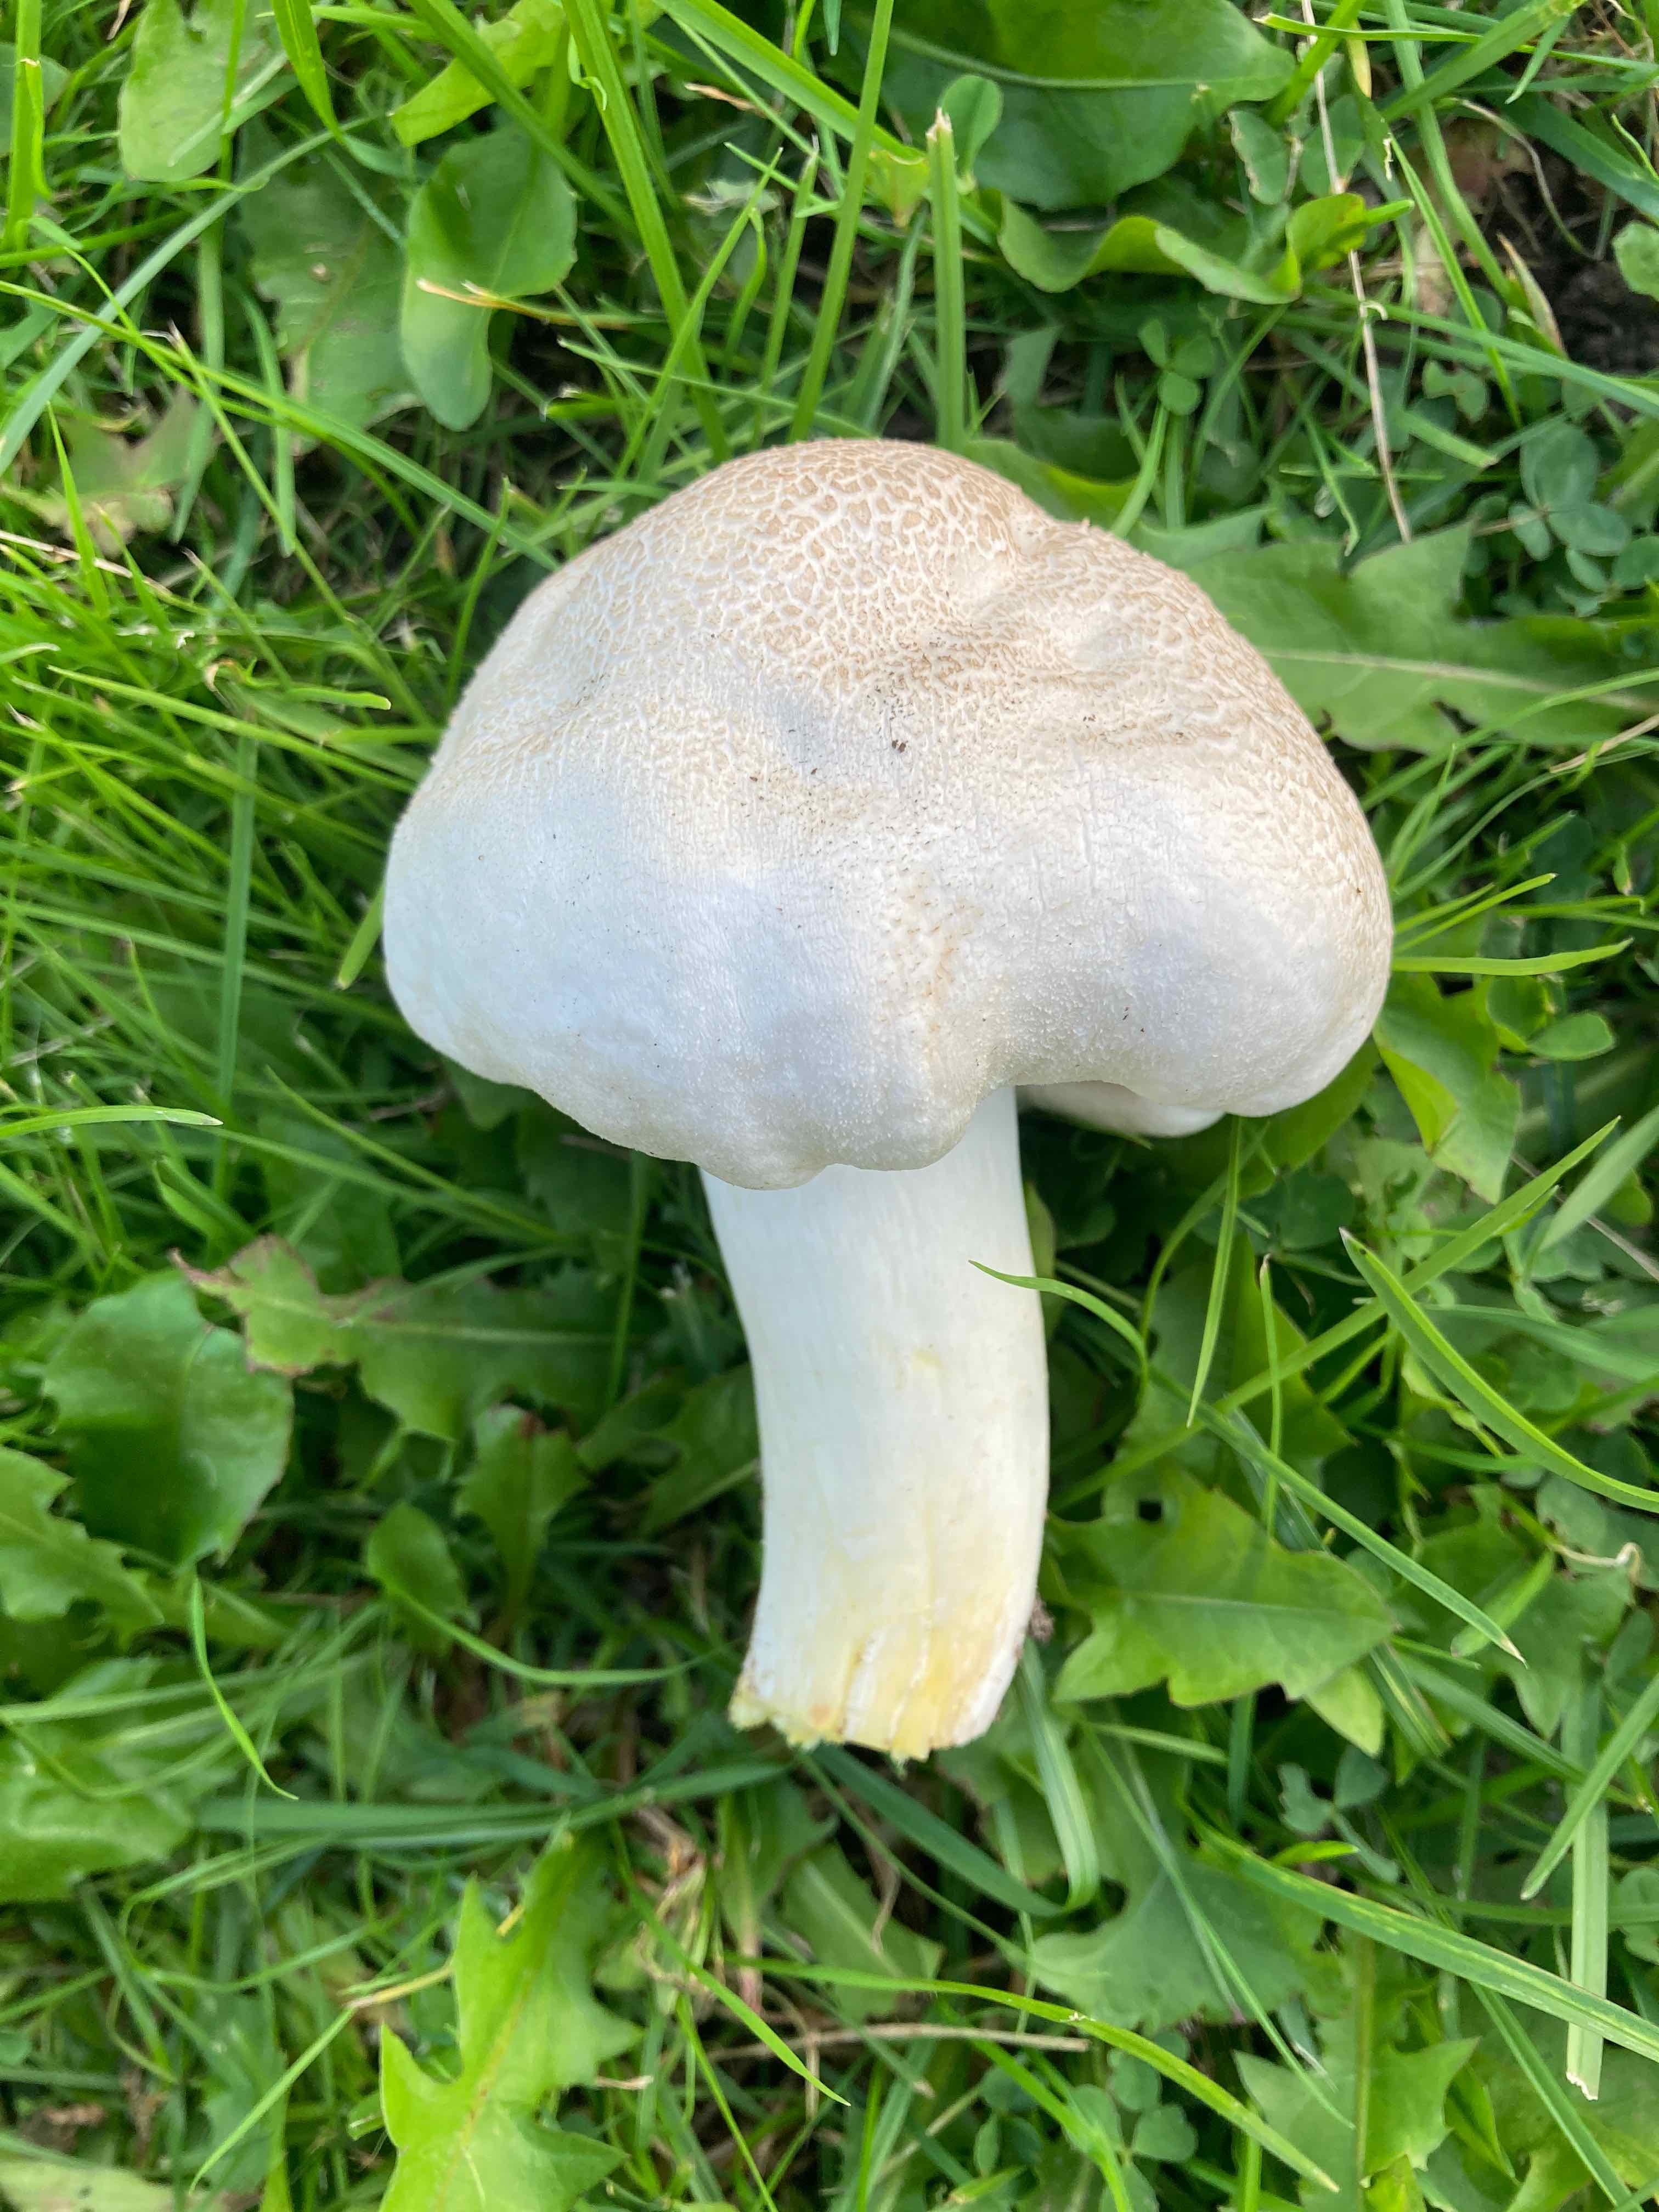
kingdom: Fungi
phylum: Basidiomycota
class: Agaricomycetes
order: Agaricales
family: Agaricaceae
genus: Agaricus
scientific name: Agaricus xanthodermus
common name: karbol-champignon
